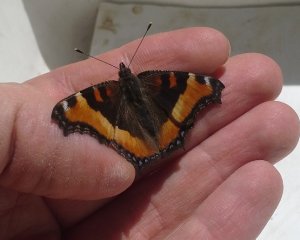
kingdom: Animalia
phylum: Arthropoda
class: Insecta
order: Lepidoptera
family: Nymphalidae
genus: Aglais
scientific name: Aglais milberti
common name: Milbert's Tortoiseshell
